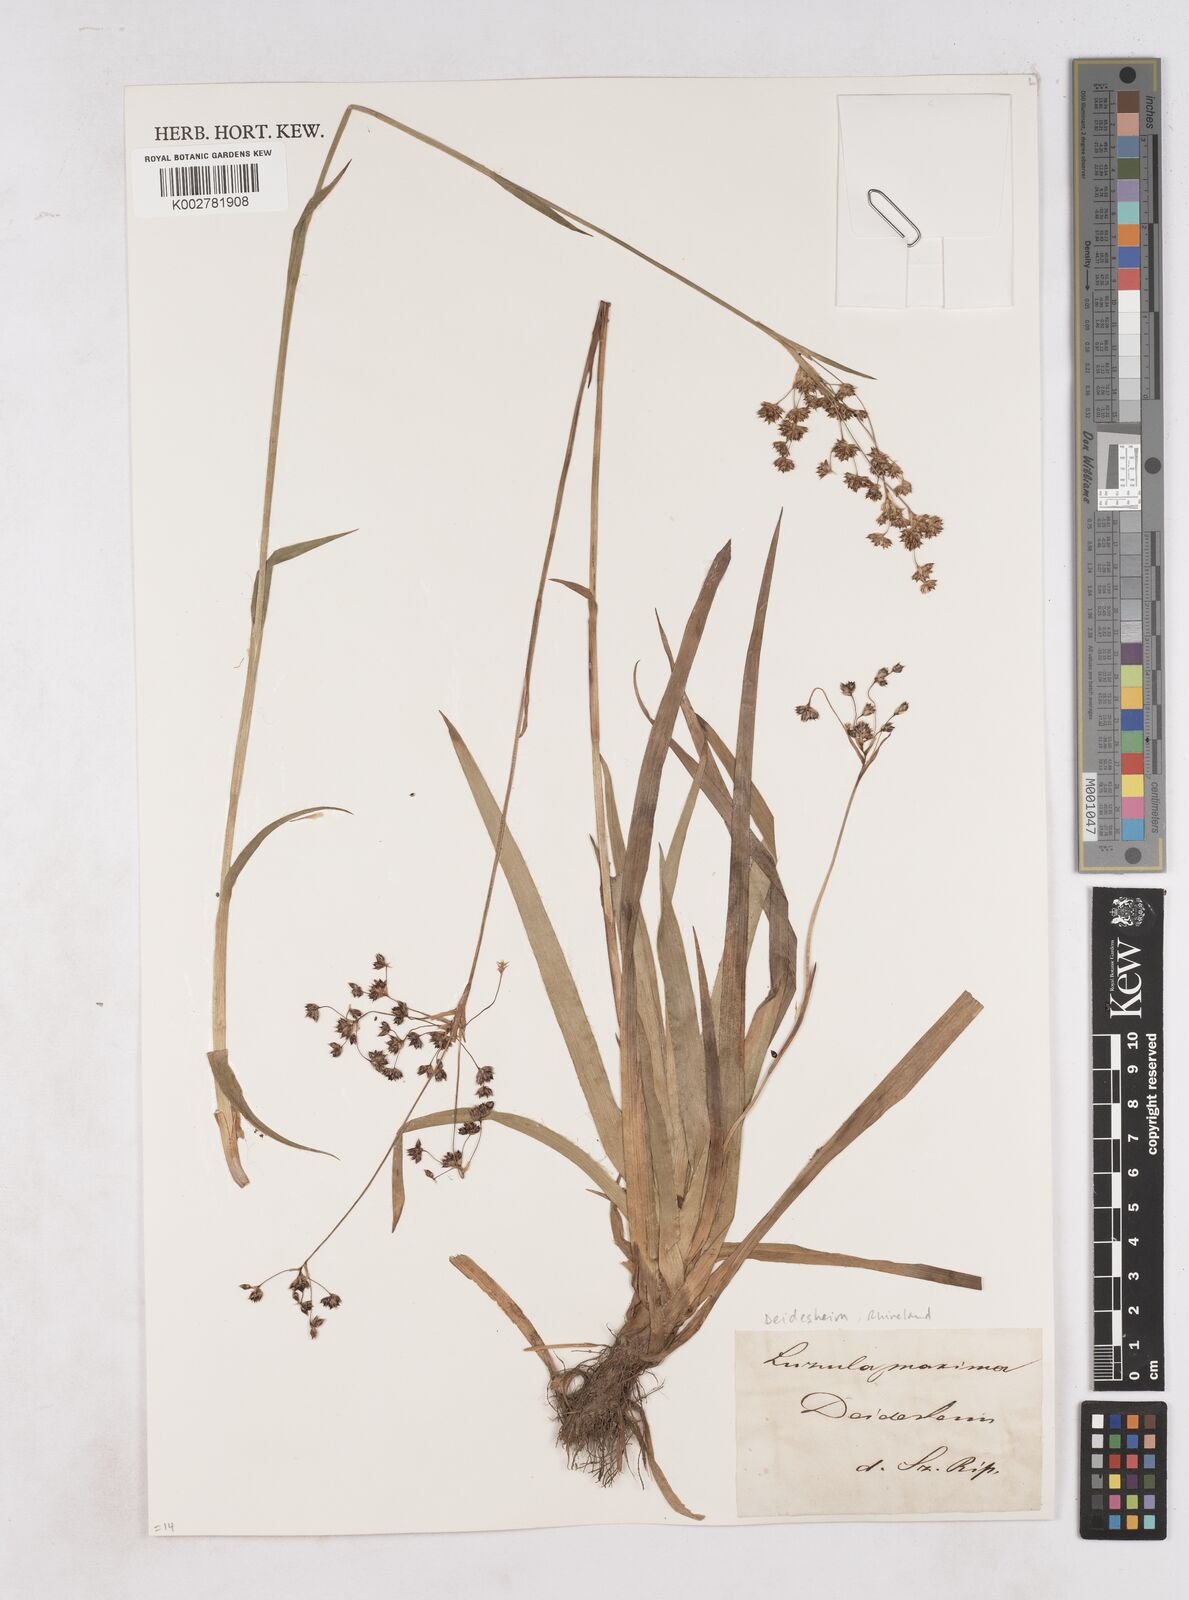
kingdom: Plantae
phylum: Tracheophyta
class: Liliopsida
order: Poales
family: Juncaceae
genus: Luzula
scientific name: Luzula sylvatica
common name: Great wood-rush
